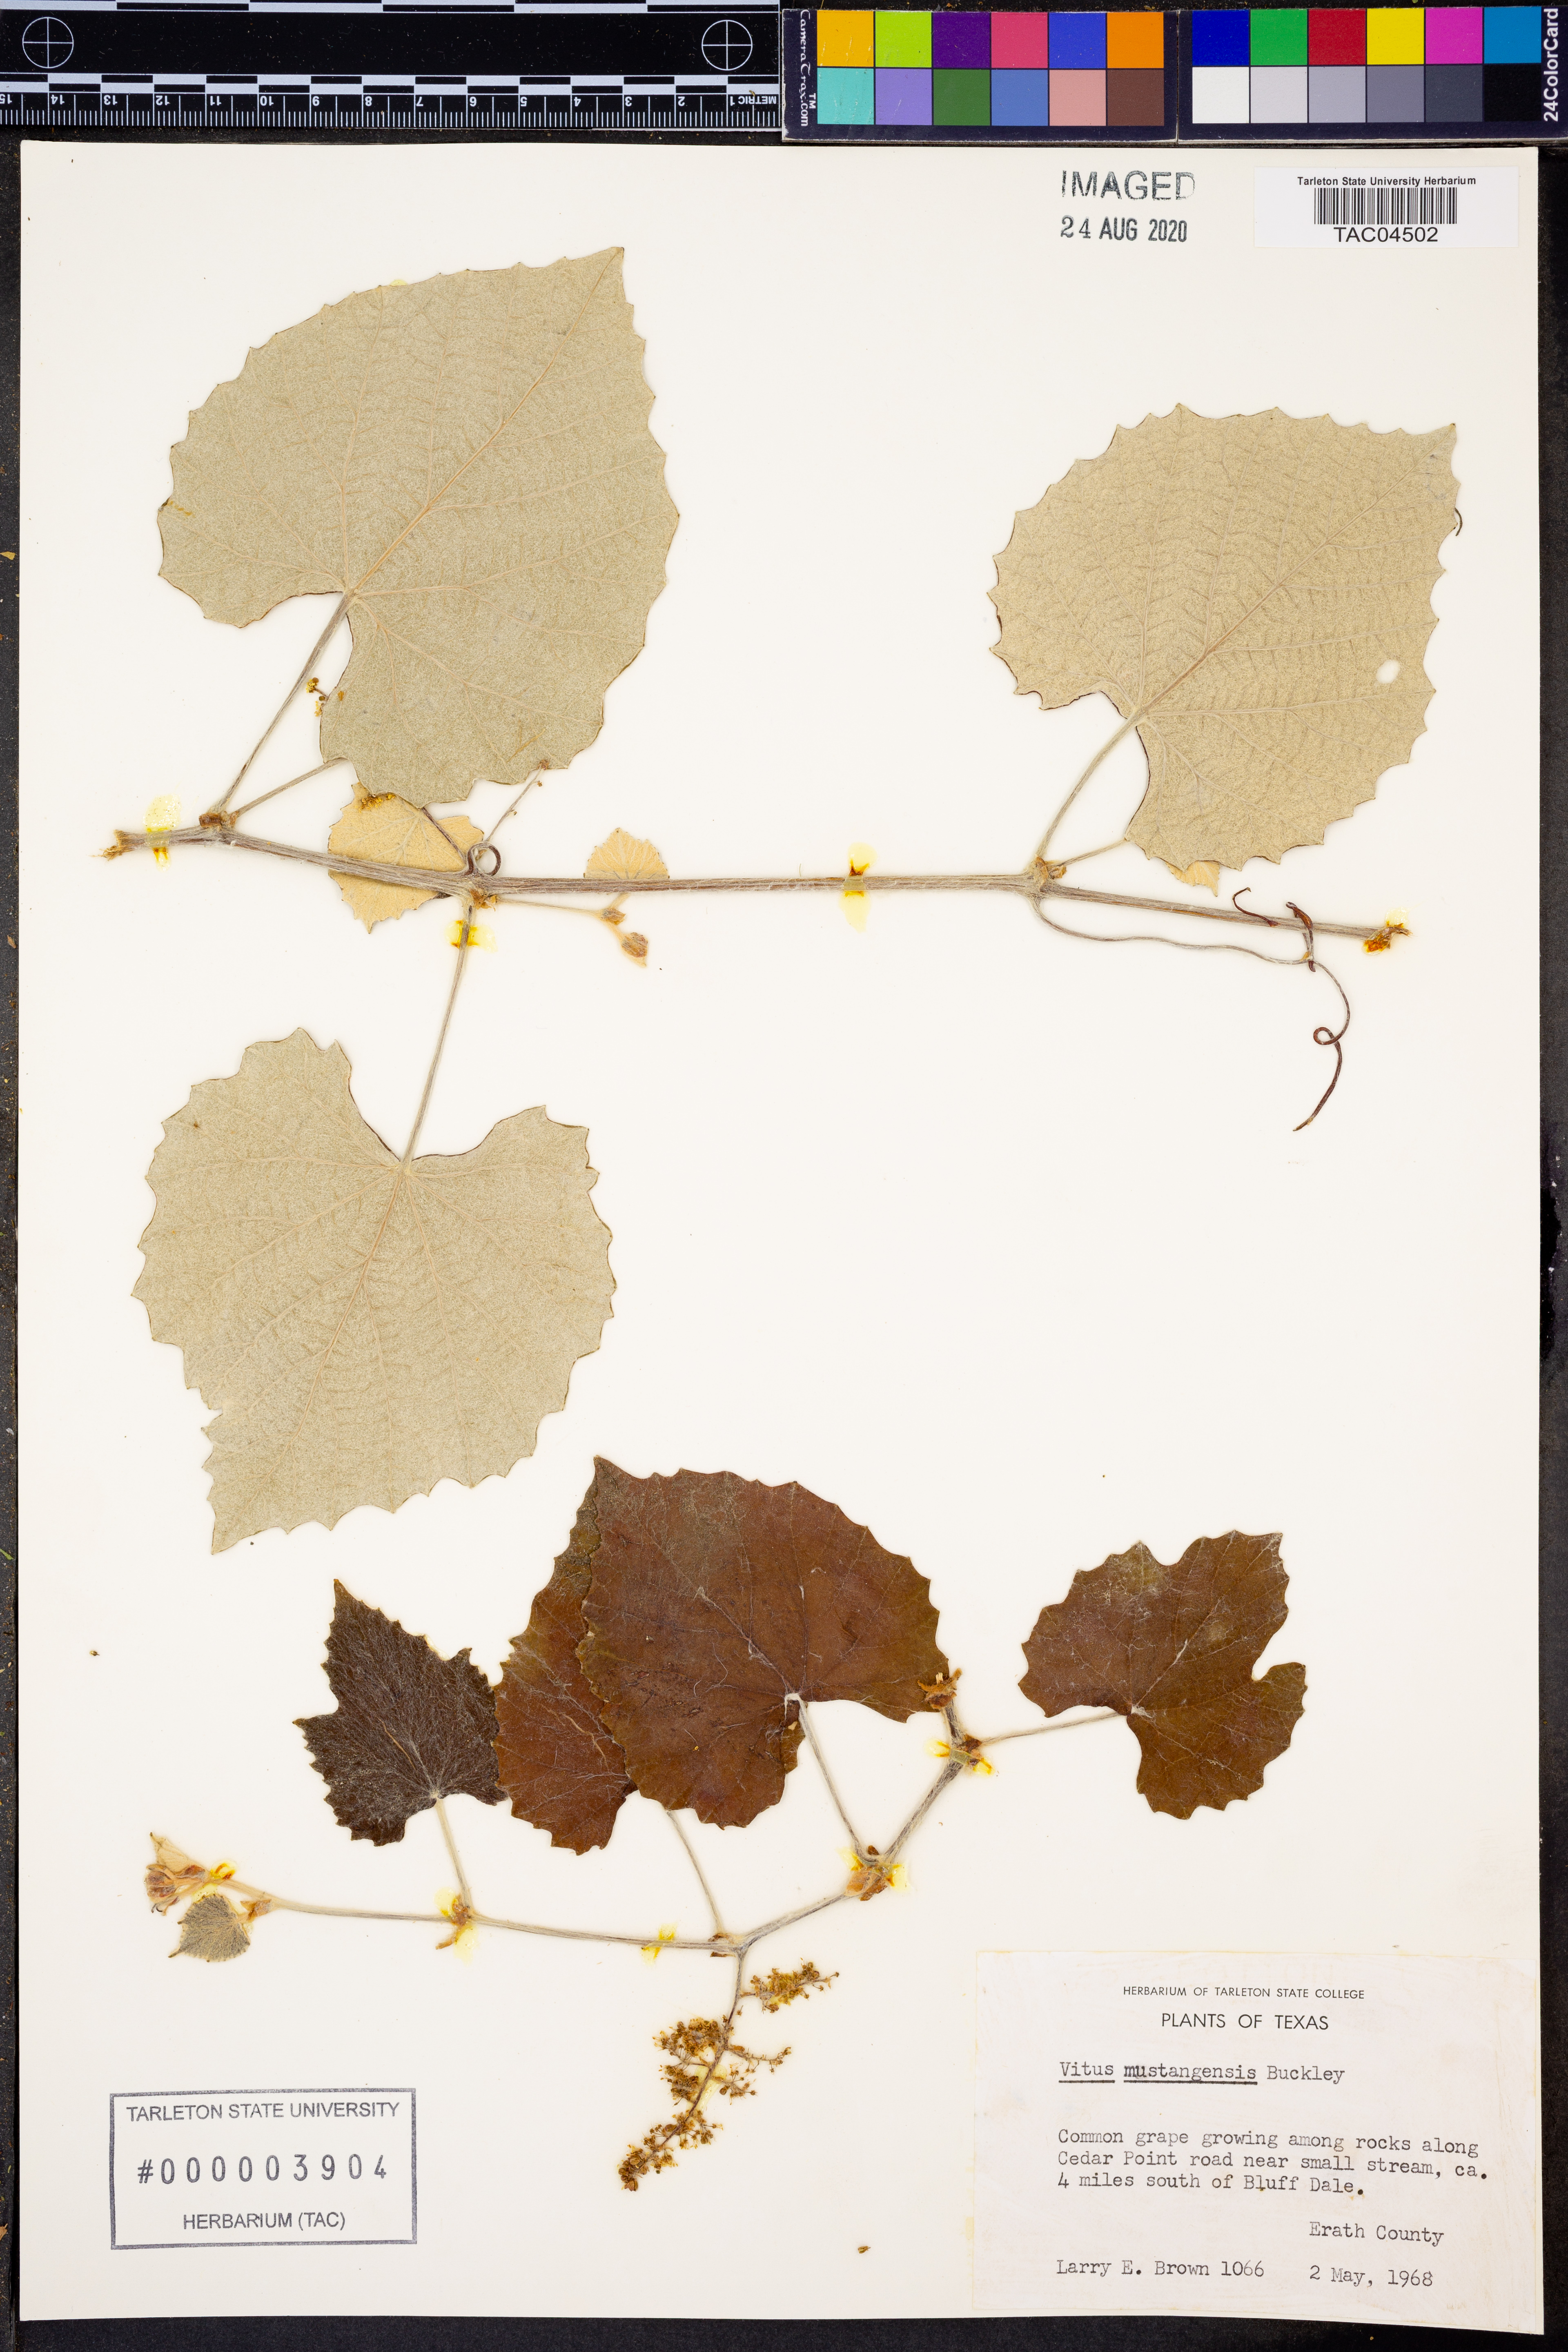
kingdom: Plantae
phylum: Tracheophyta
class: Magnoliopsida
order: Vitales
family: Vitaceae
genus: Vitis
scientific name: Vitis mustangensis
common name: Mustang grape
